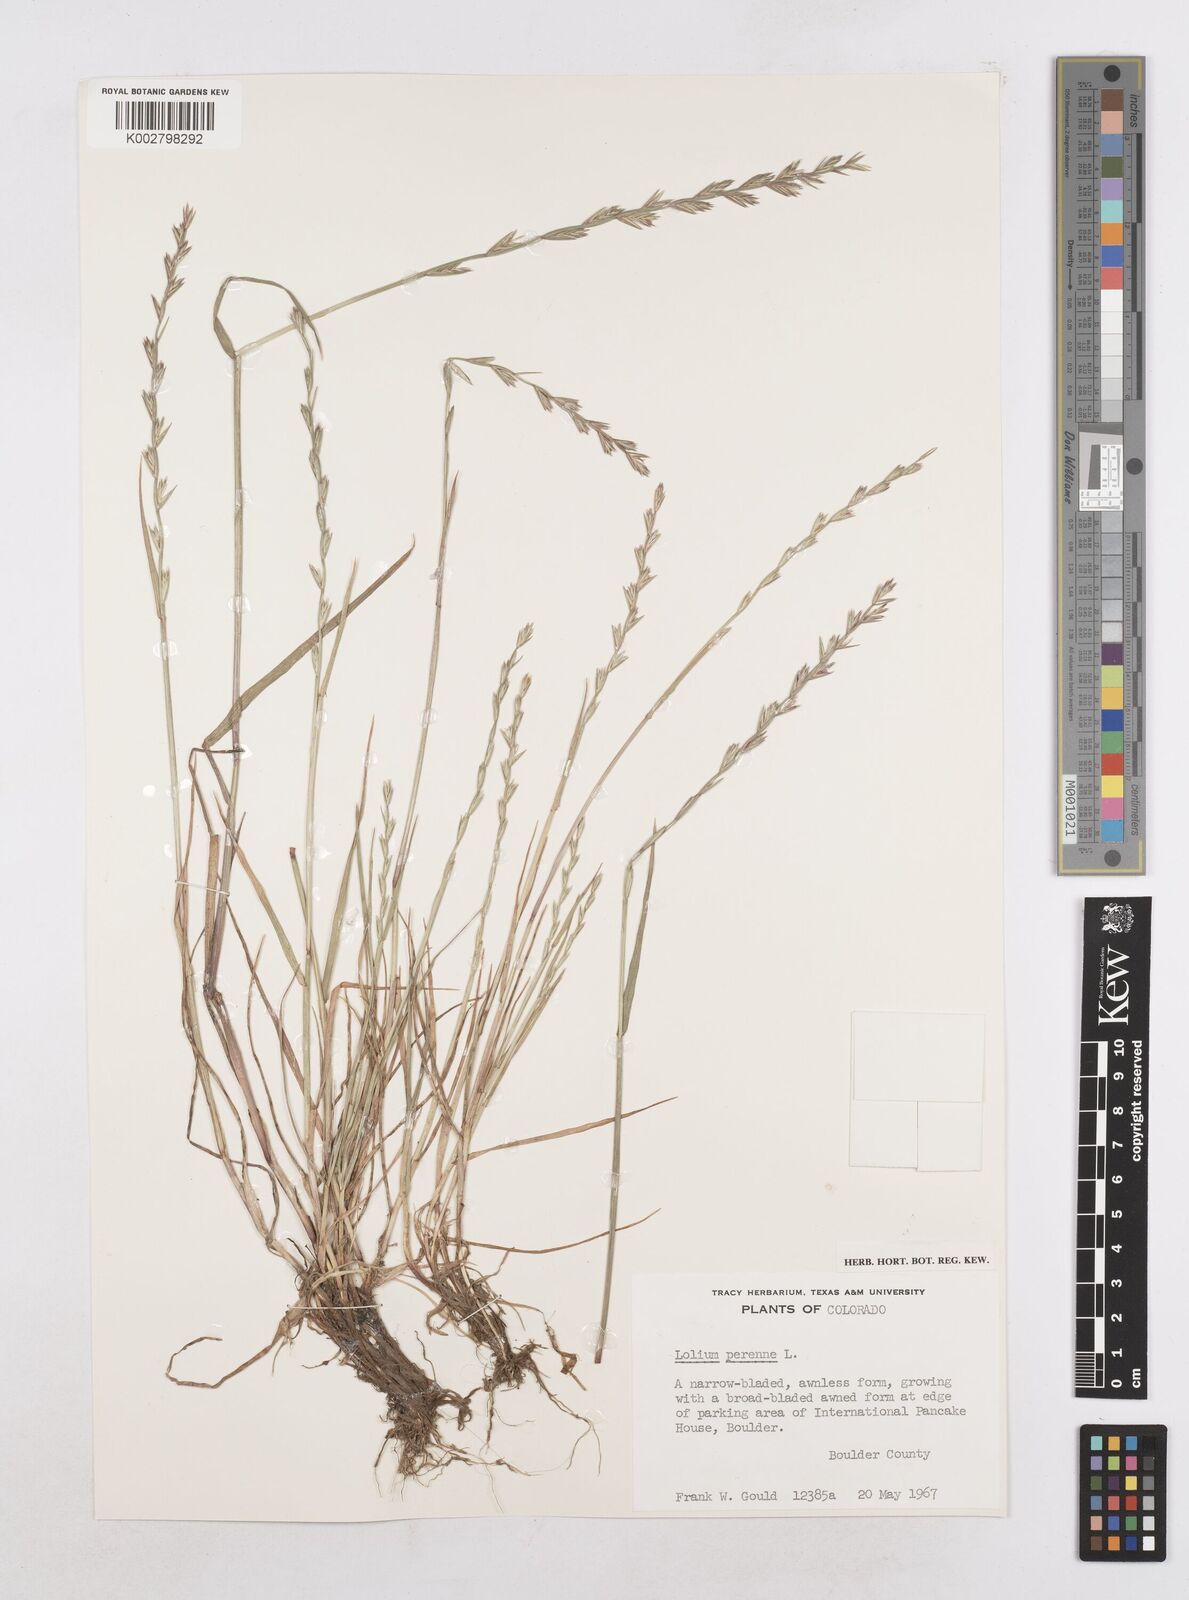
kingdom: Plantae
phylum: Tracheophyta
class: Liliopsida
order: Poales
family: Poaceae
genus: Lolium
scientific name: Lolium perenne
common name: Perennial ryegrass
